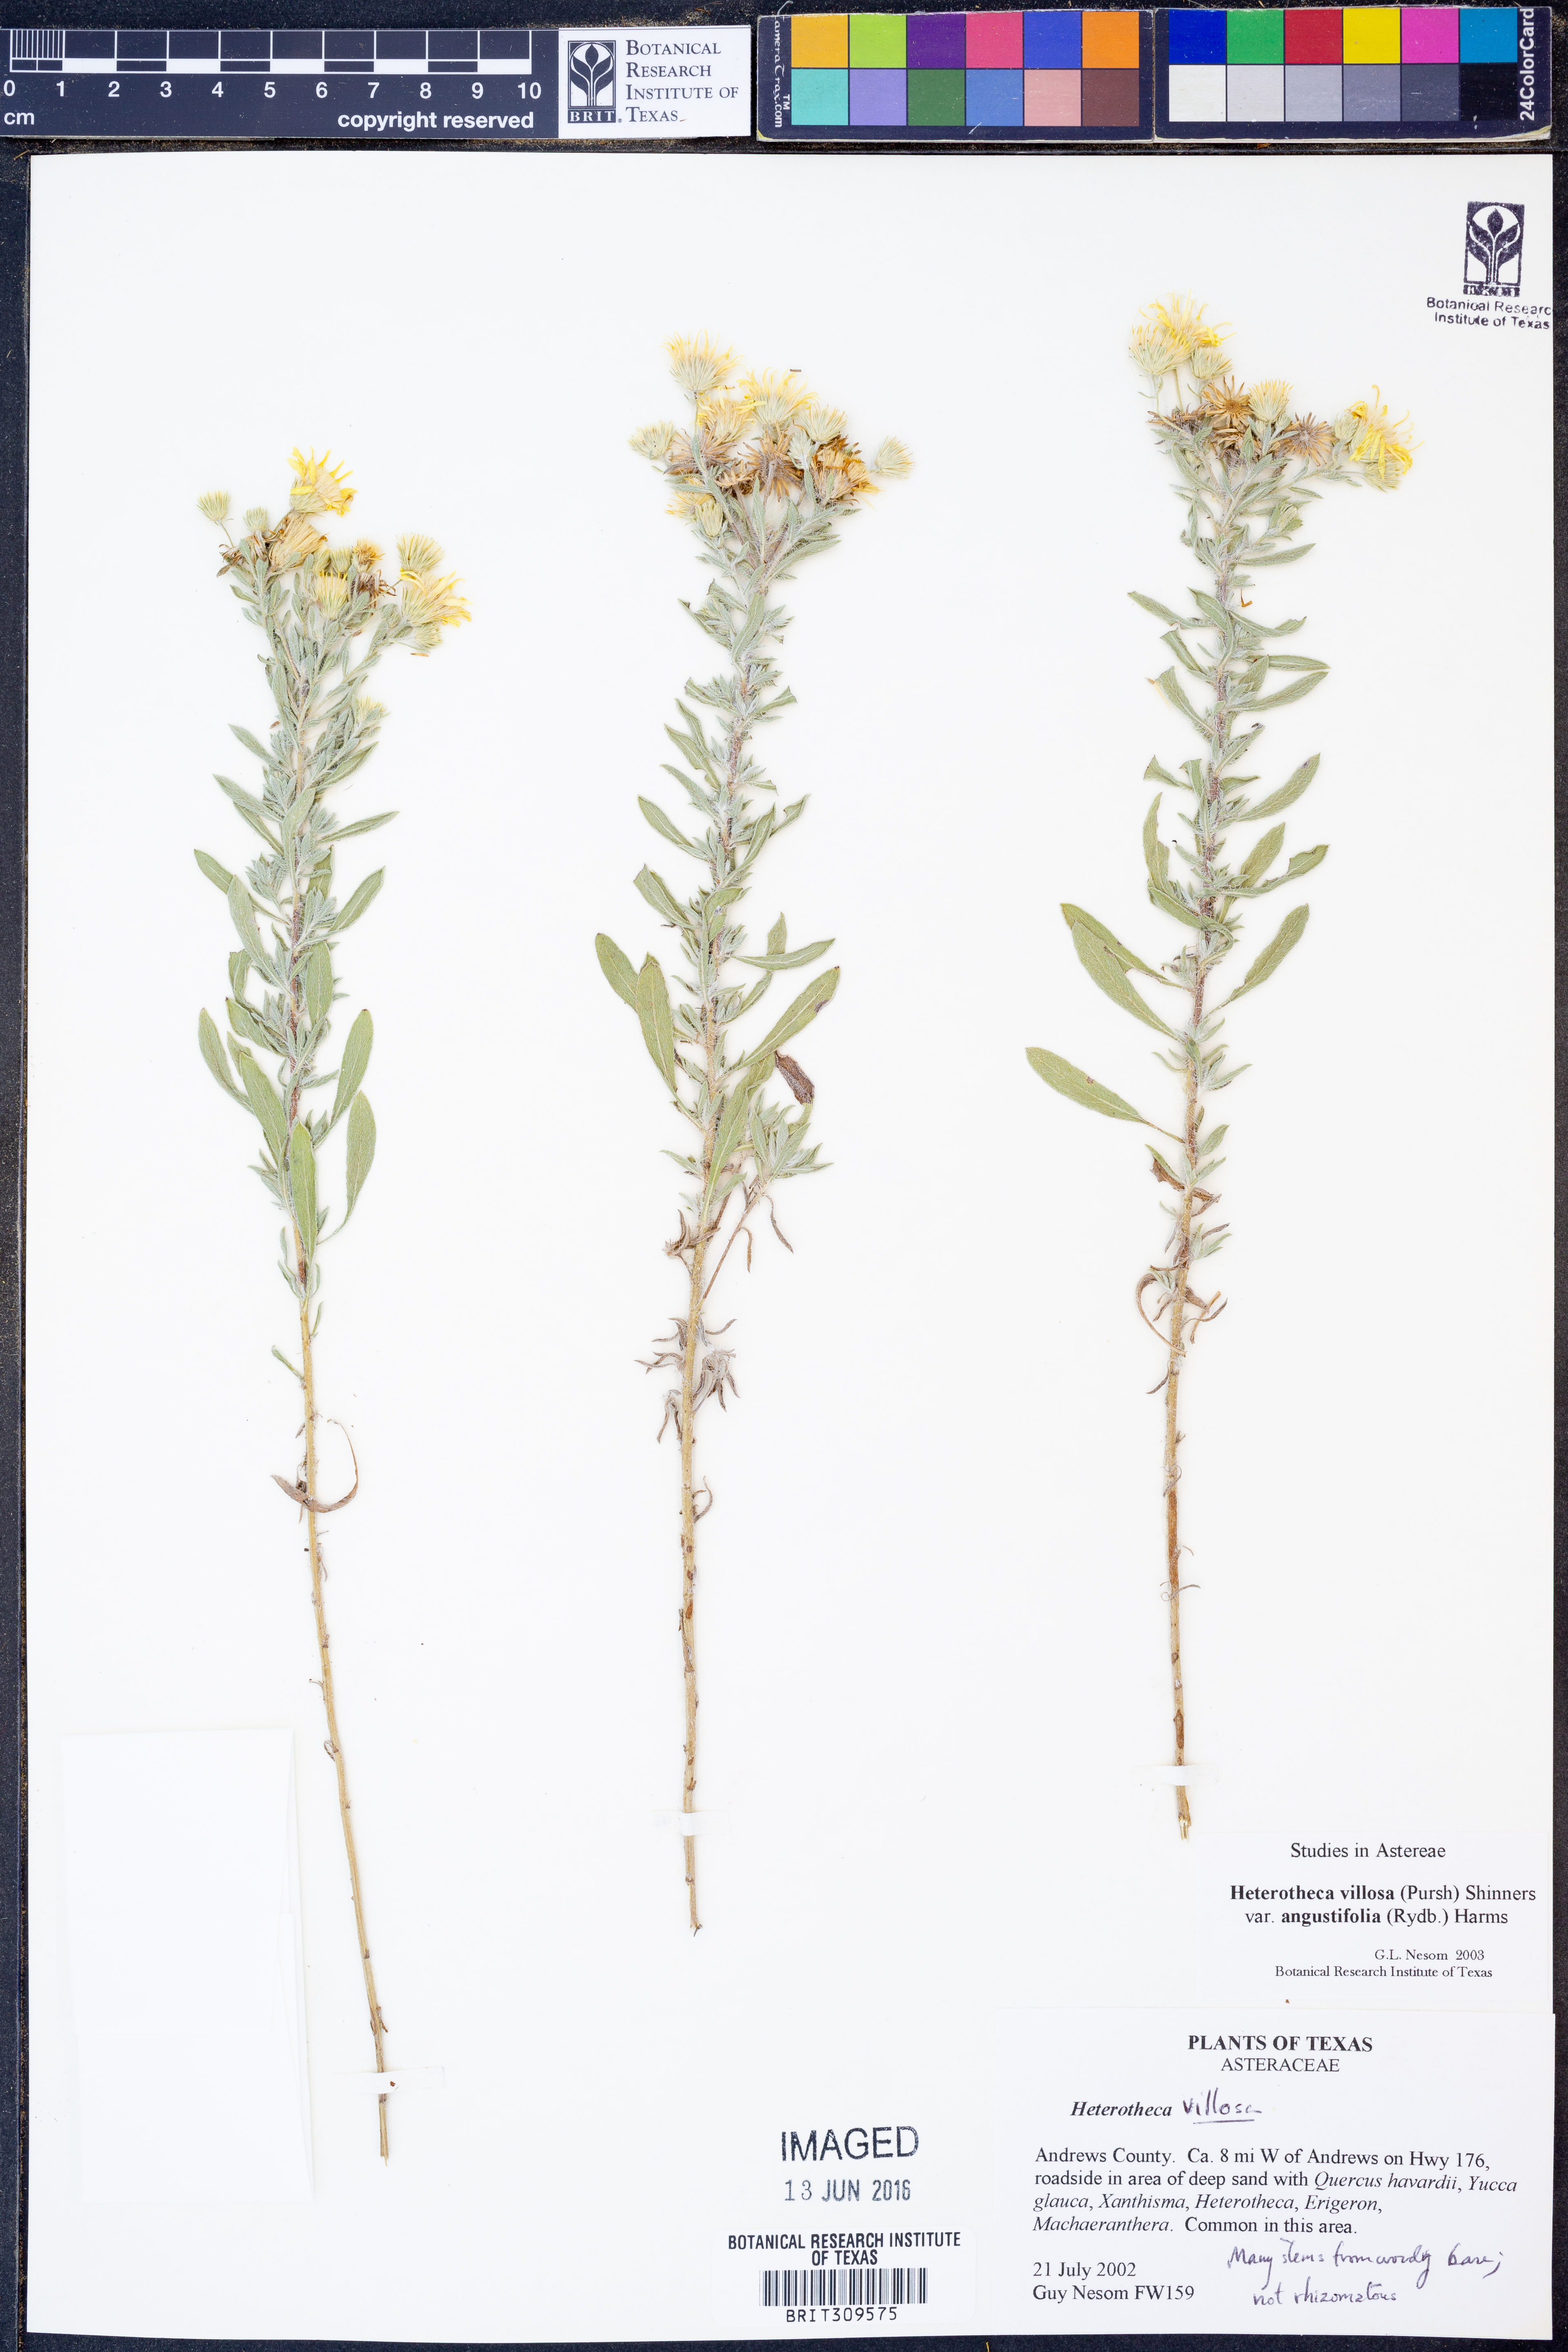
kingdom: Plantae
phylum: Tracheophyta
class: Magnoliopsida
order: Asterales
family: Asteraceae
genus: Heterotheca
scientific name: Heterotheca angustifolia
